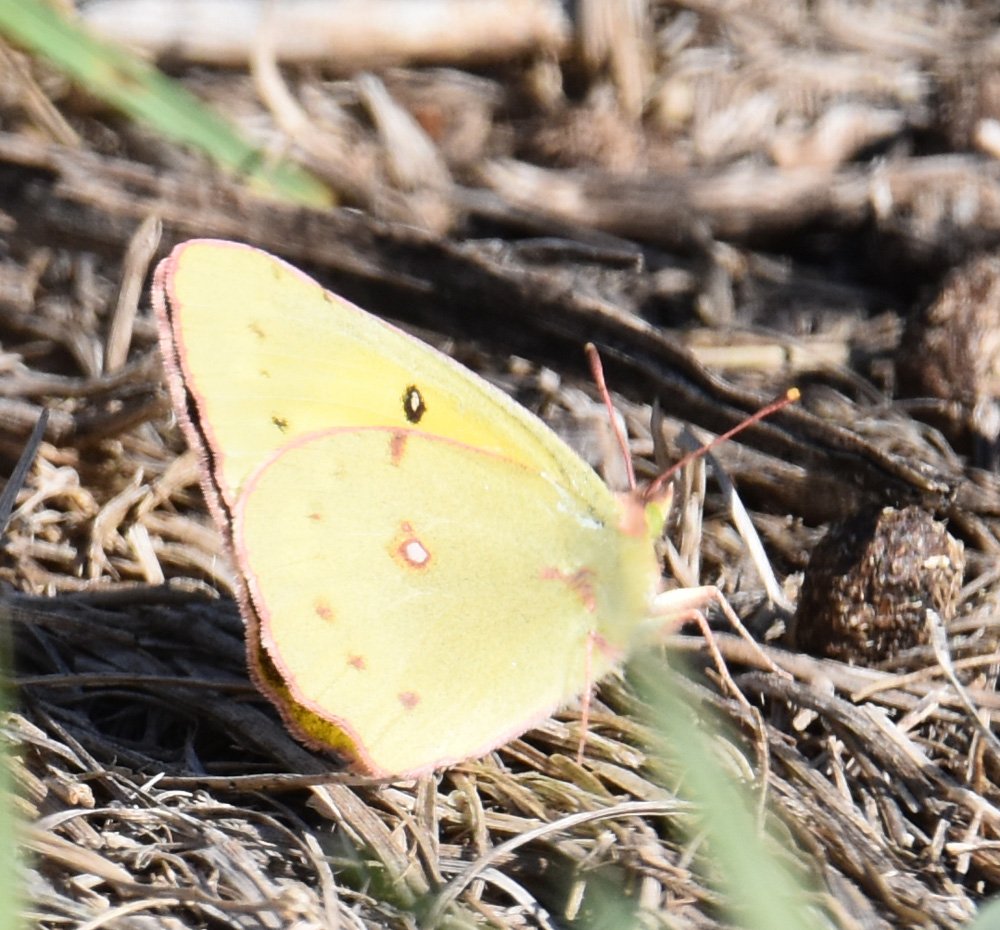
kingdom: Animalia
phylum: Arthropoda
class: Insecta
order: Lepidoptera
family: Pieridae
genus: Colias
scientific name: Colias eurytheme
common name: Orange Sulphur
